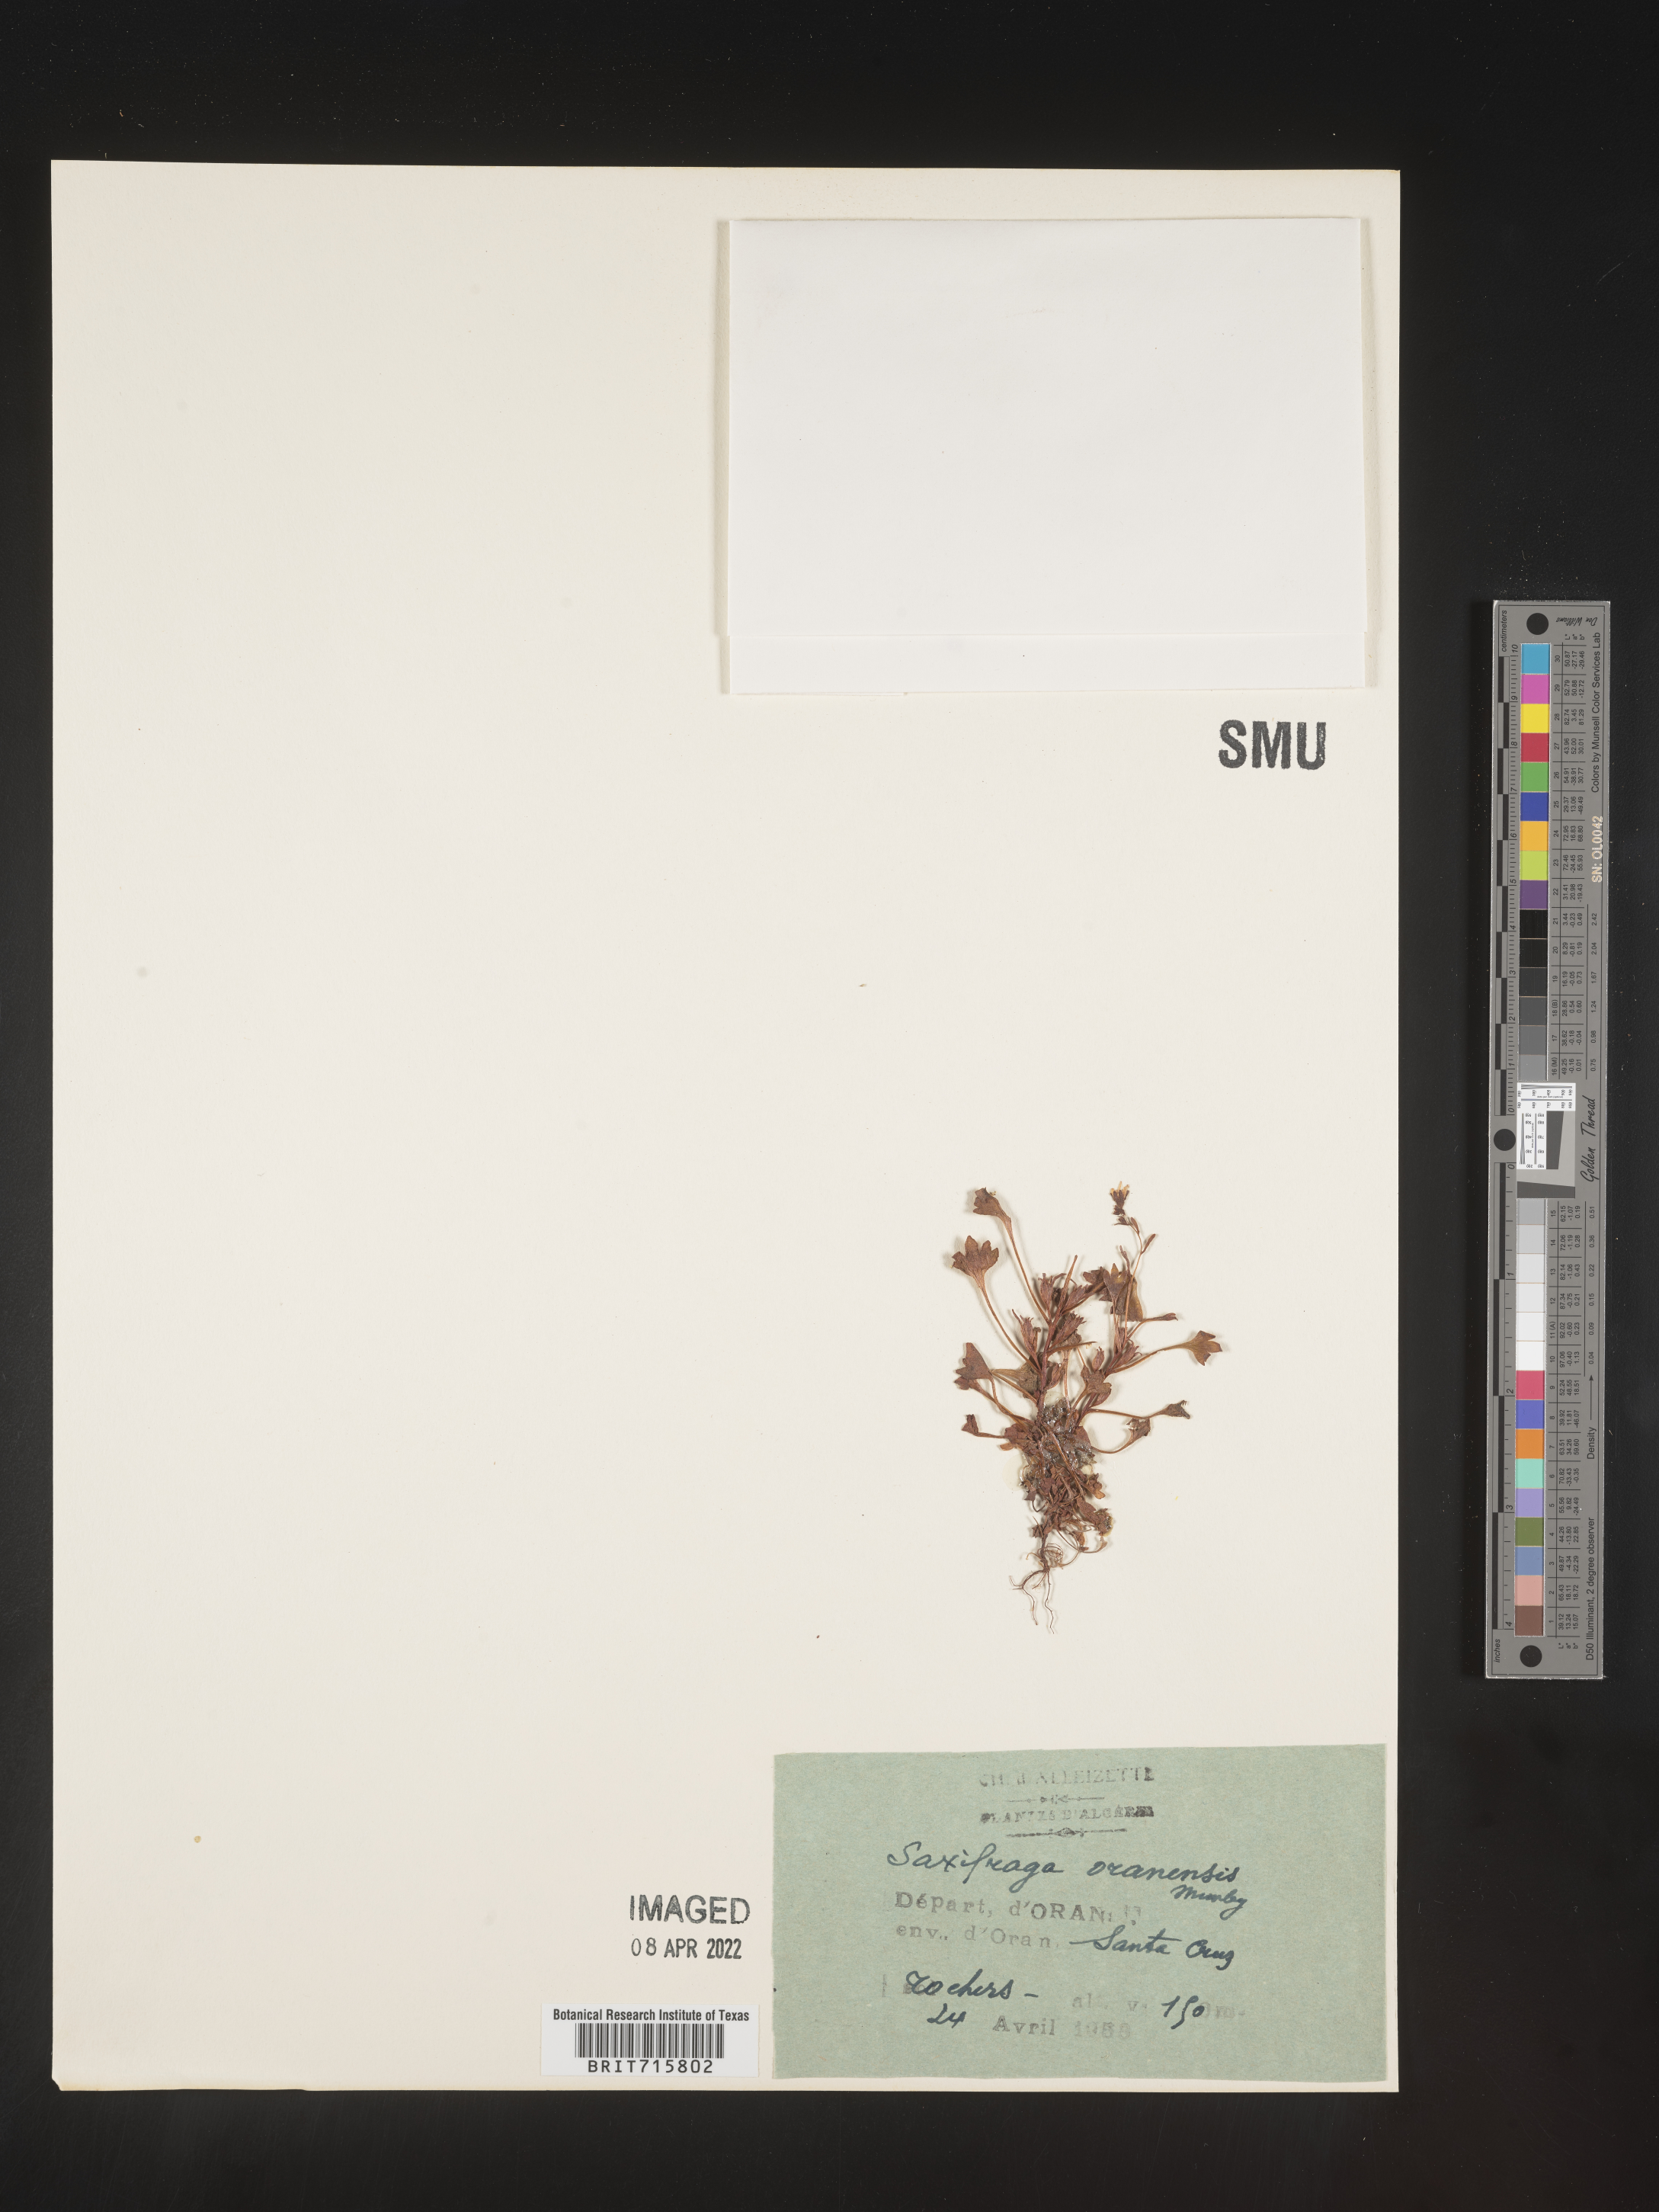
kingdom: Plantae
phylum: Tracheophyta
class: Magnoliopsida
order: Saxifragales
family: Saxifragaceae
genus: Saxifraga
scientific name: Saxifraga
